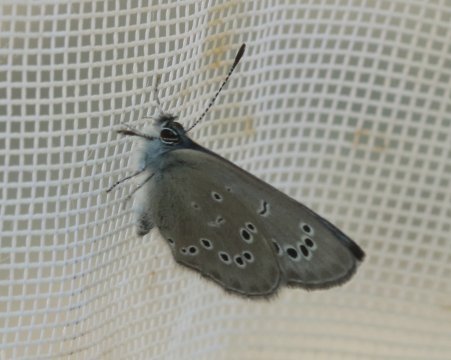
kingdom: Animalia
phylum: Arthropoda
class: Insecta
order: Lepidoptera
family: Lycaenidae
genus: Glaucopsyche
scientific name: Glaucopsyche lygdamus
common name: Silvery Blue
